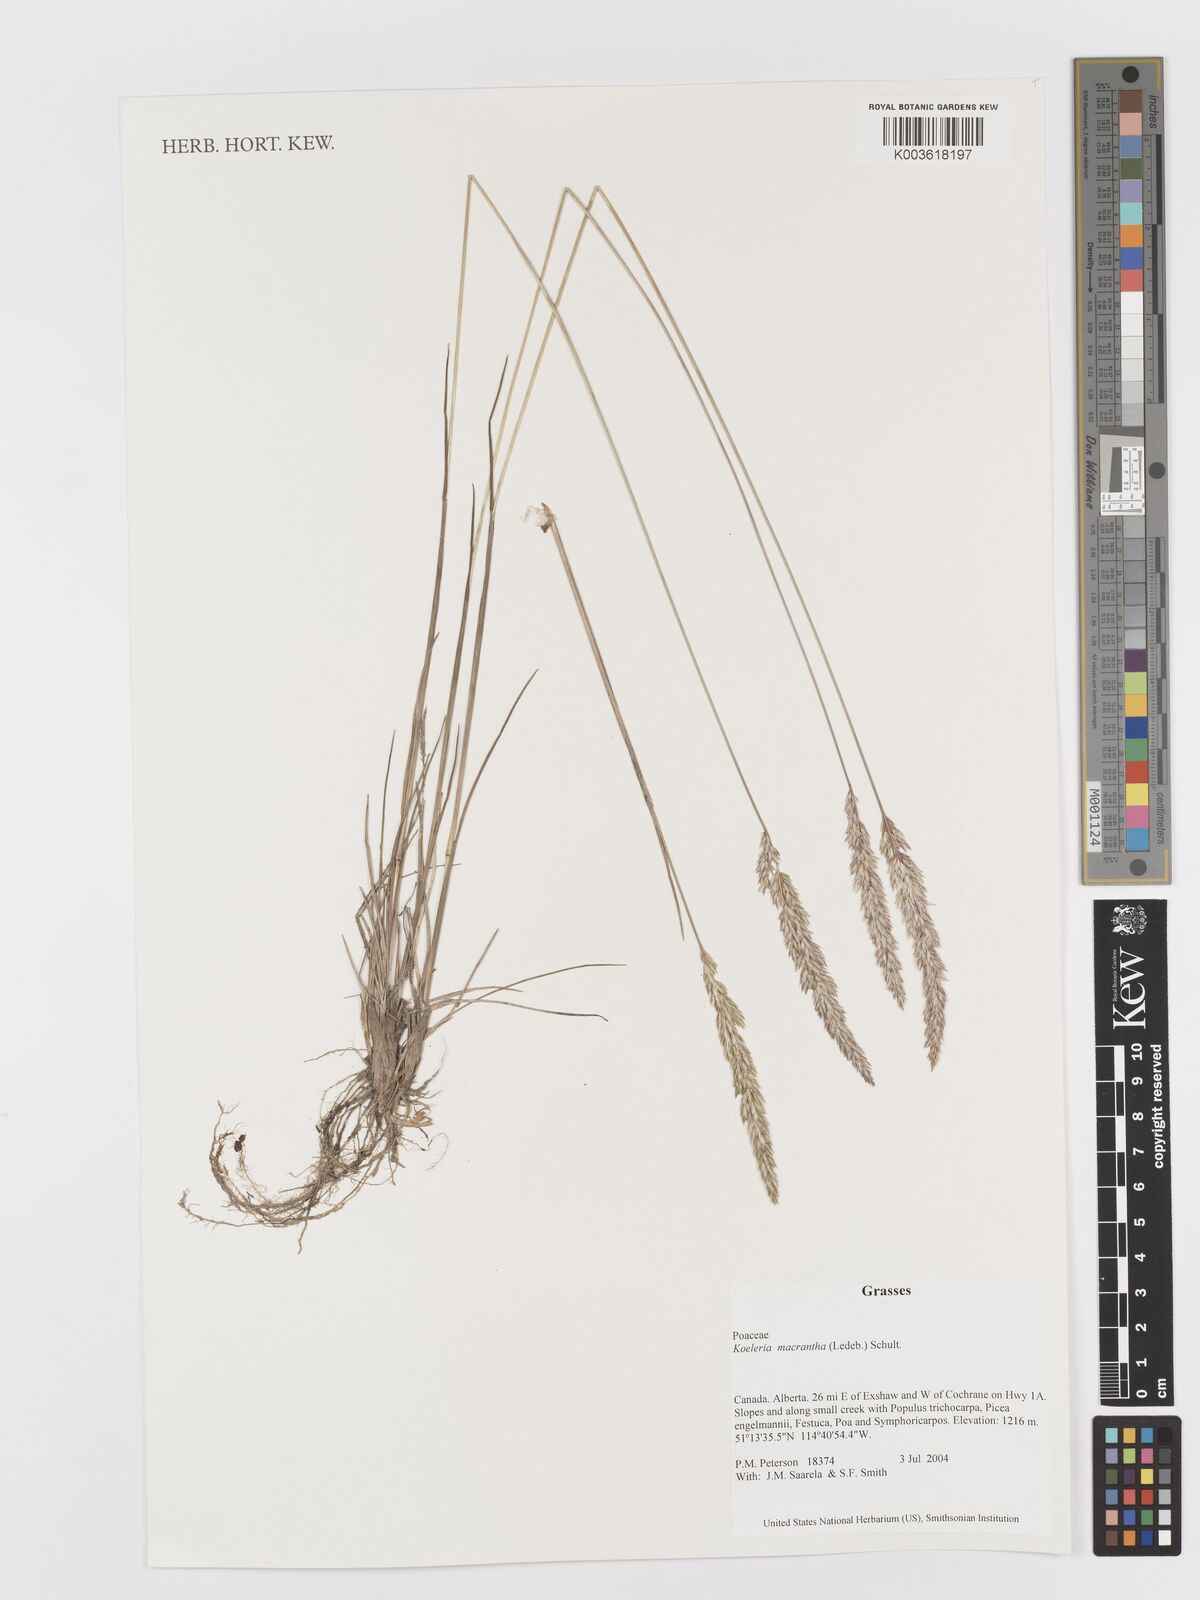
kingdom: Plantae
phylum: Tracheophyta
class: Liliopsida
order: Poales
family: Poaceae
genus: Koeleria
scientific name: Koeleria
